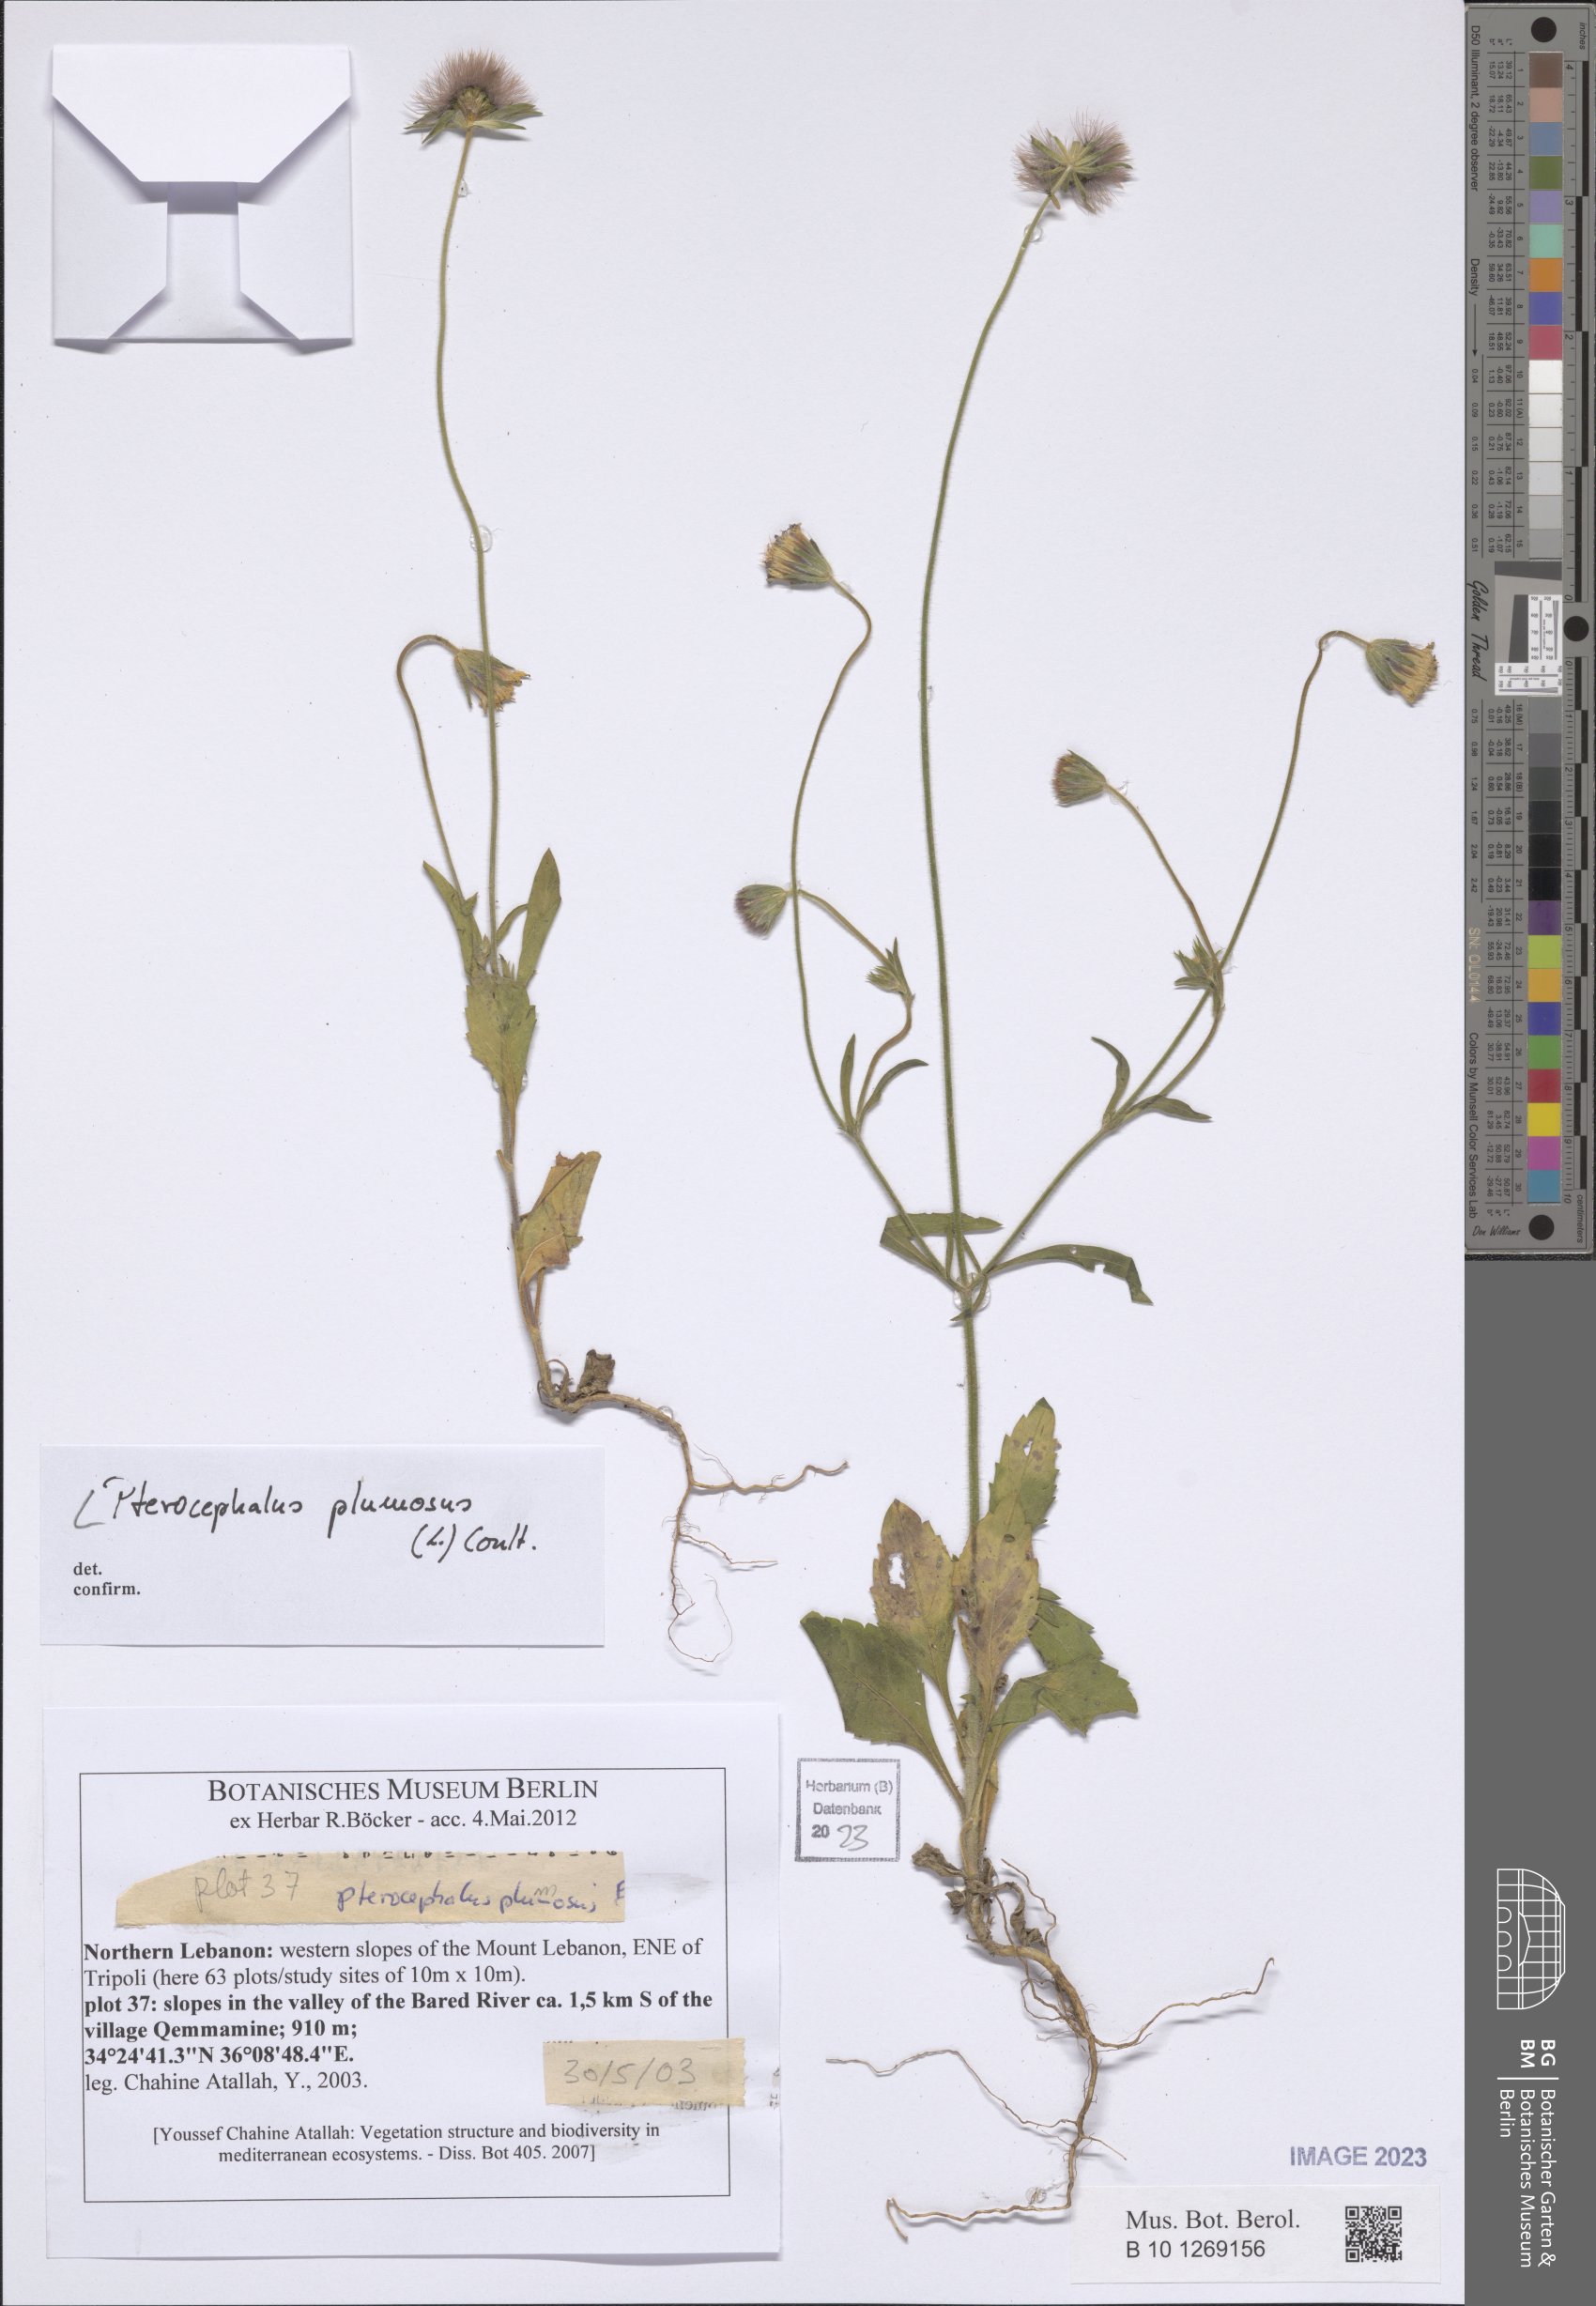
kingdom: Plantae
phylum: Tracheophyta
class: Magnoliopsida
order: Dipsacales
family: Caprifoliaceae
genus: Pterocephalus
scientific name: Pterocephalus plumosus
